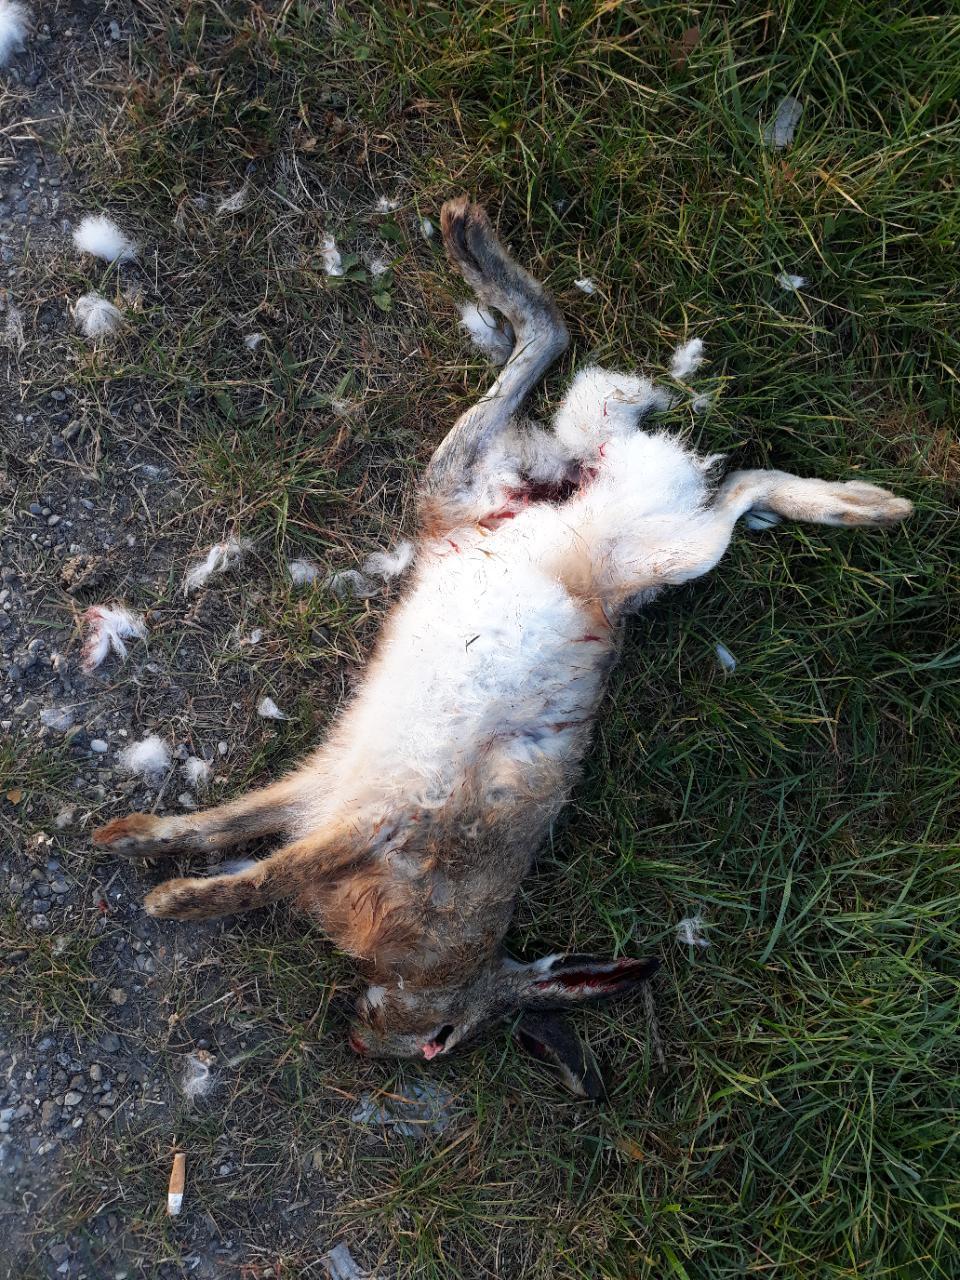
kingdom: Animalia
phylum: Chordata
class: Mammalia
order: Lagomorpha
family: Leporidae
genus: Lepus
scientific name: Lepus europaeus
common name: European hare
